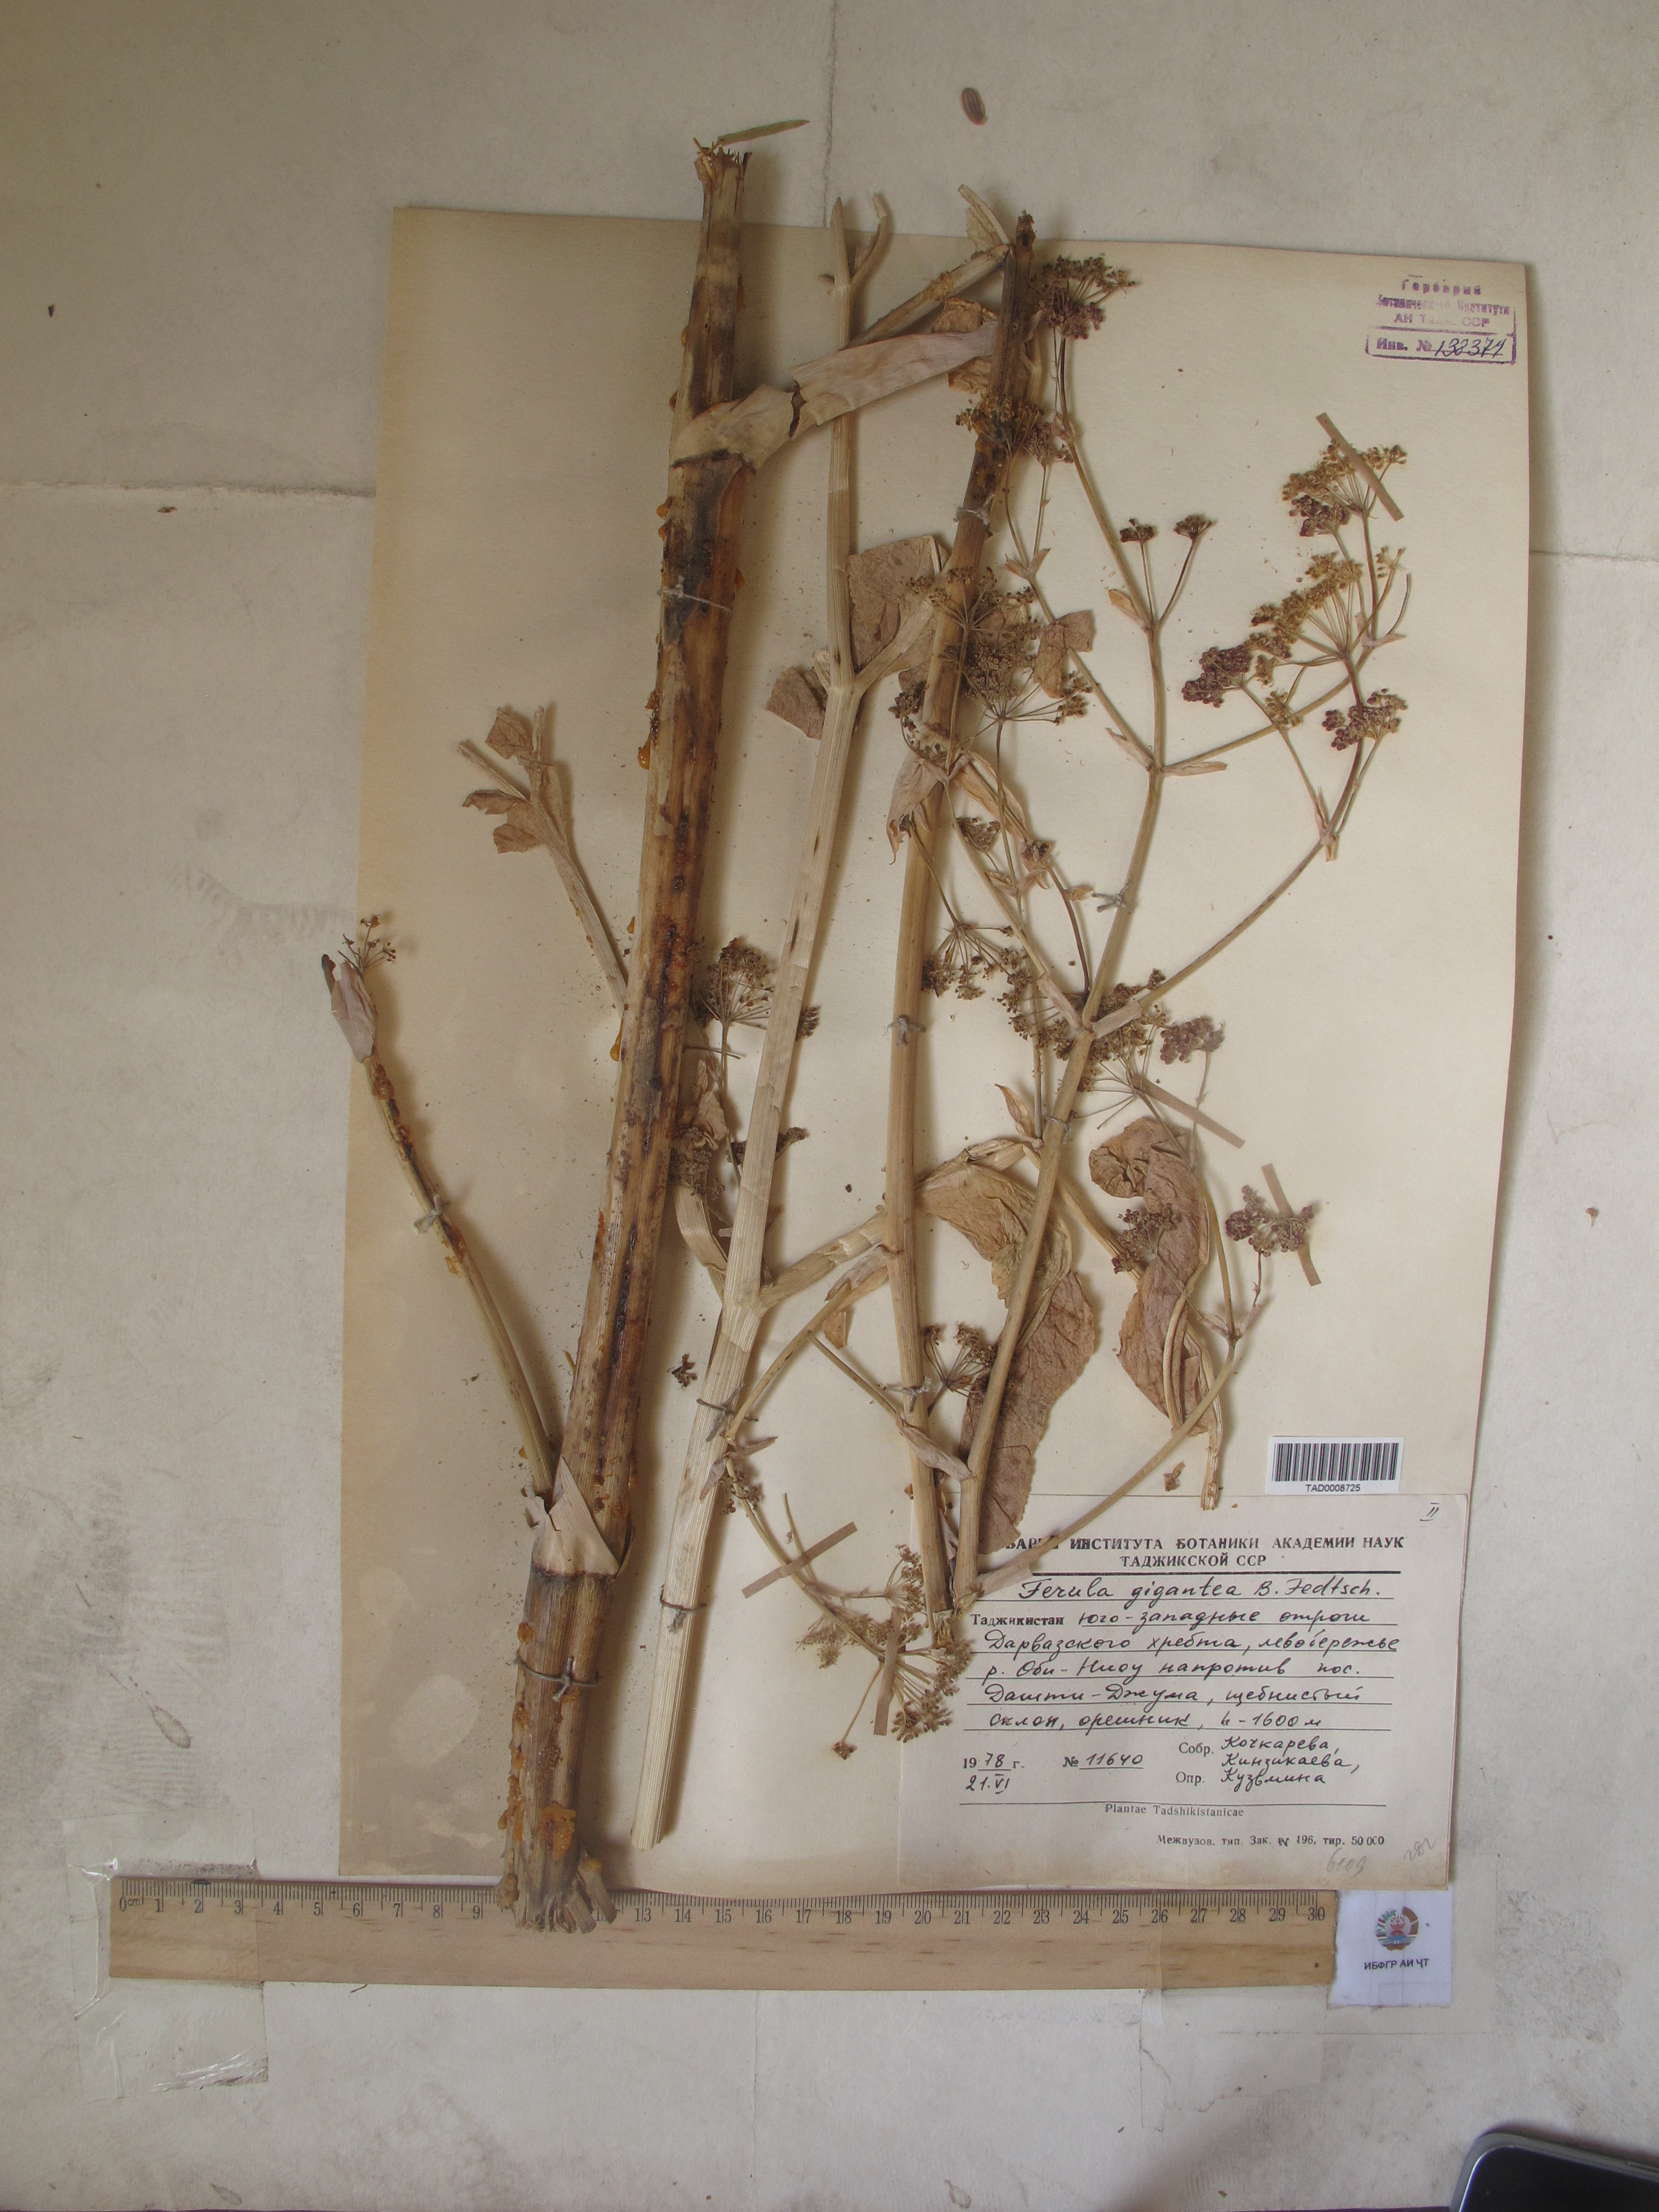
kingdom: Plantae
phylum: Tracheophyta
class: Magnoliopsida
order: Apiales
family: Apiaceae
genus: Ferula
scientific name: Ferula gigantea
